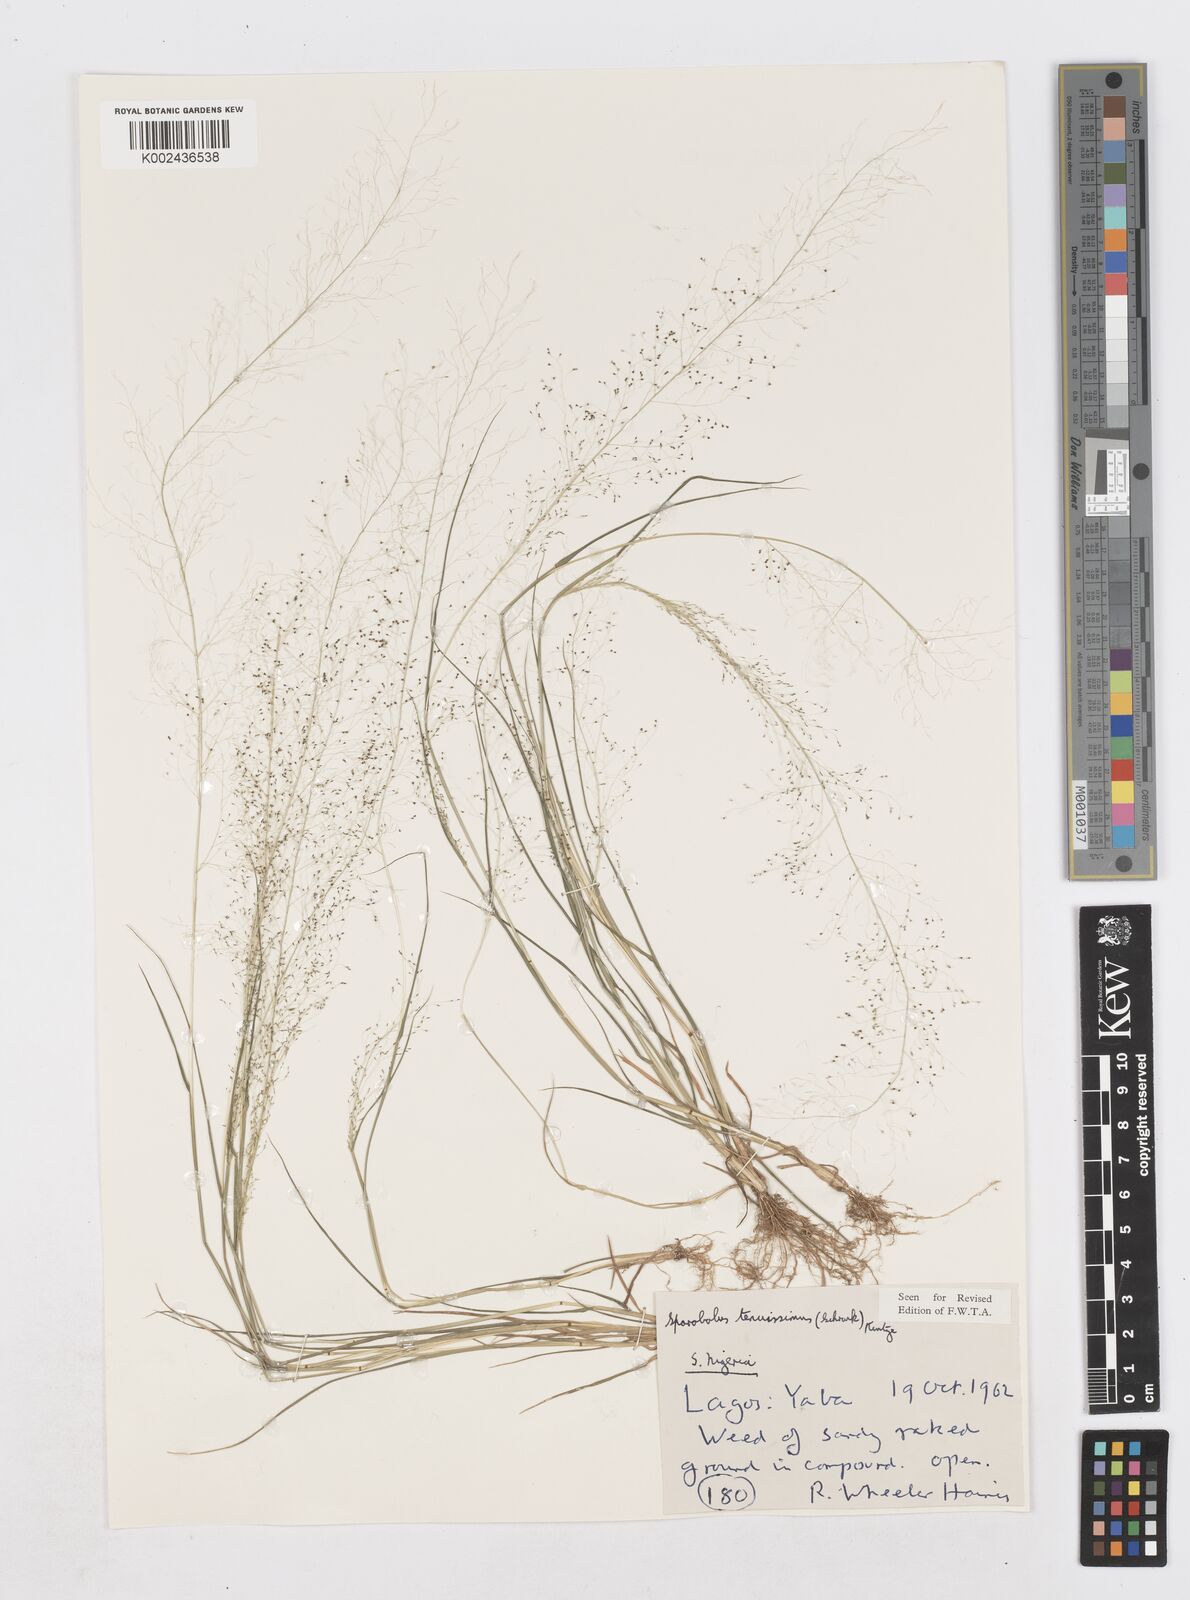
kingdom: Plantae
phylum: Tracheophyta
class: Liliopsida
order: Poales
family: Poaceae
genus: Sporobolus
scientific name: Sporobolus tenuissimus
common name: Tropical dropseed
